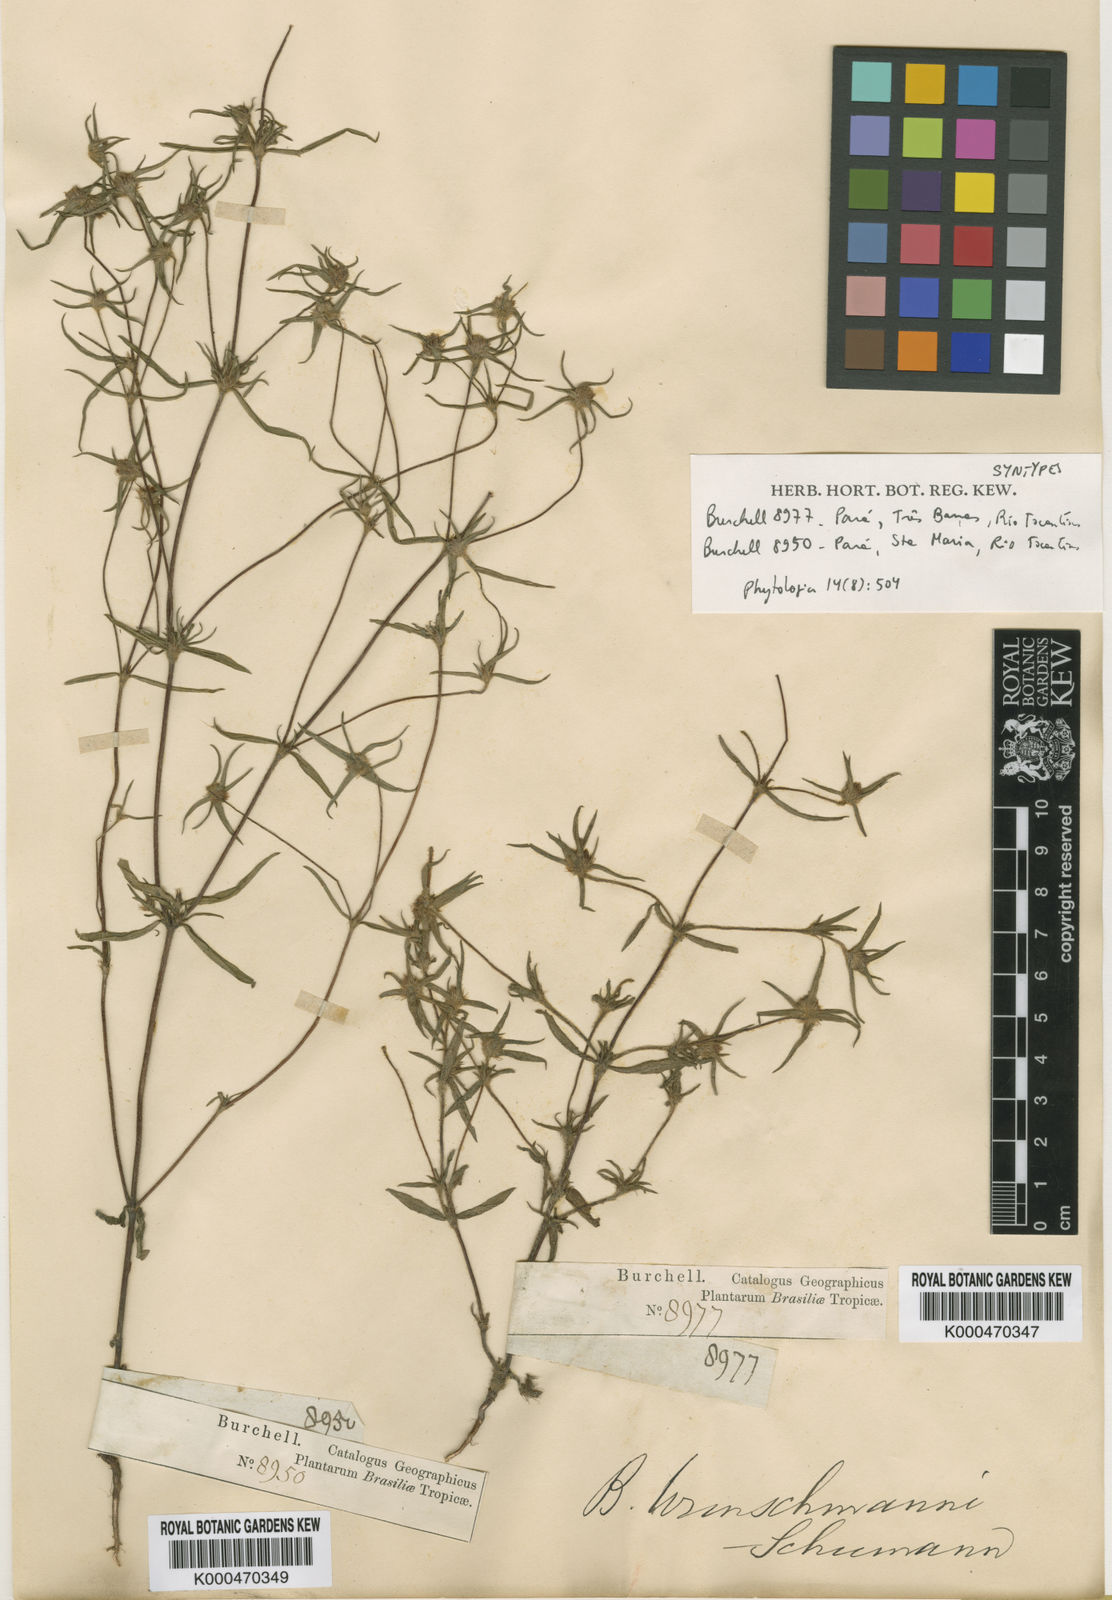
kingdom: Plantae
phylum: Tracheophyta
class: Magnoliopsida
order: Gentianales
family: Rubiaceae
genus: Spermacoce
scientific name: Spermacoce wunschmannii
